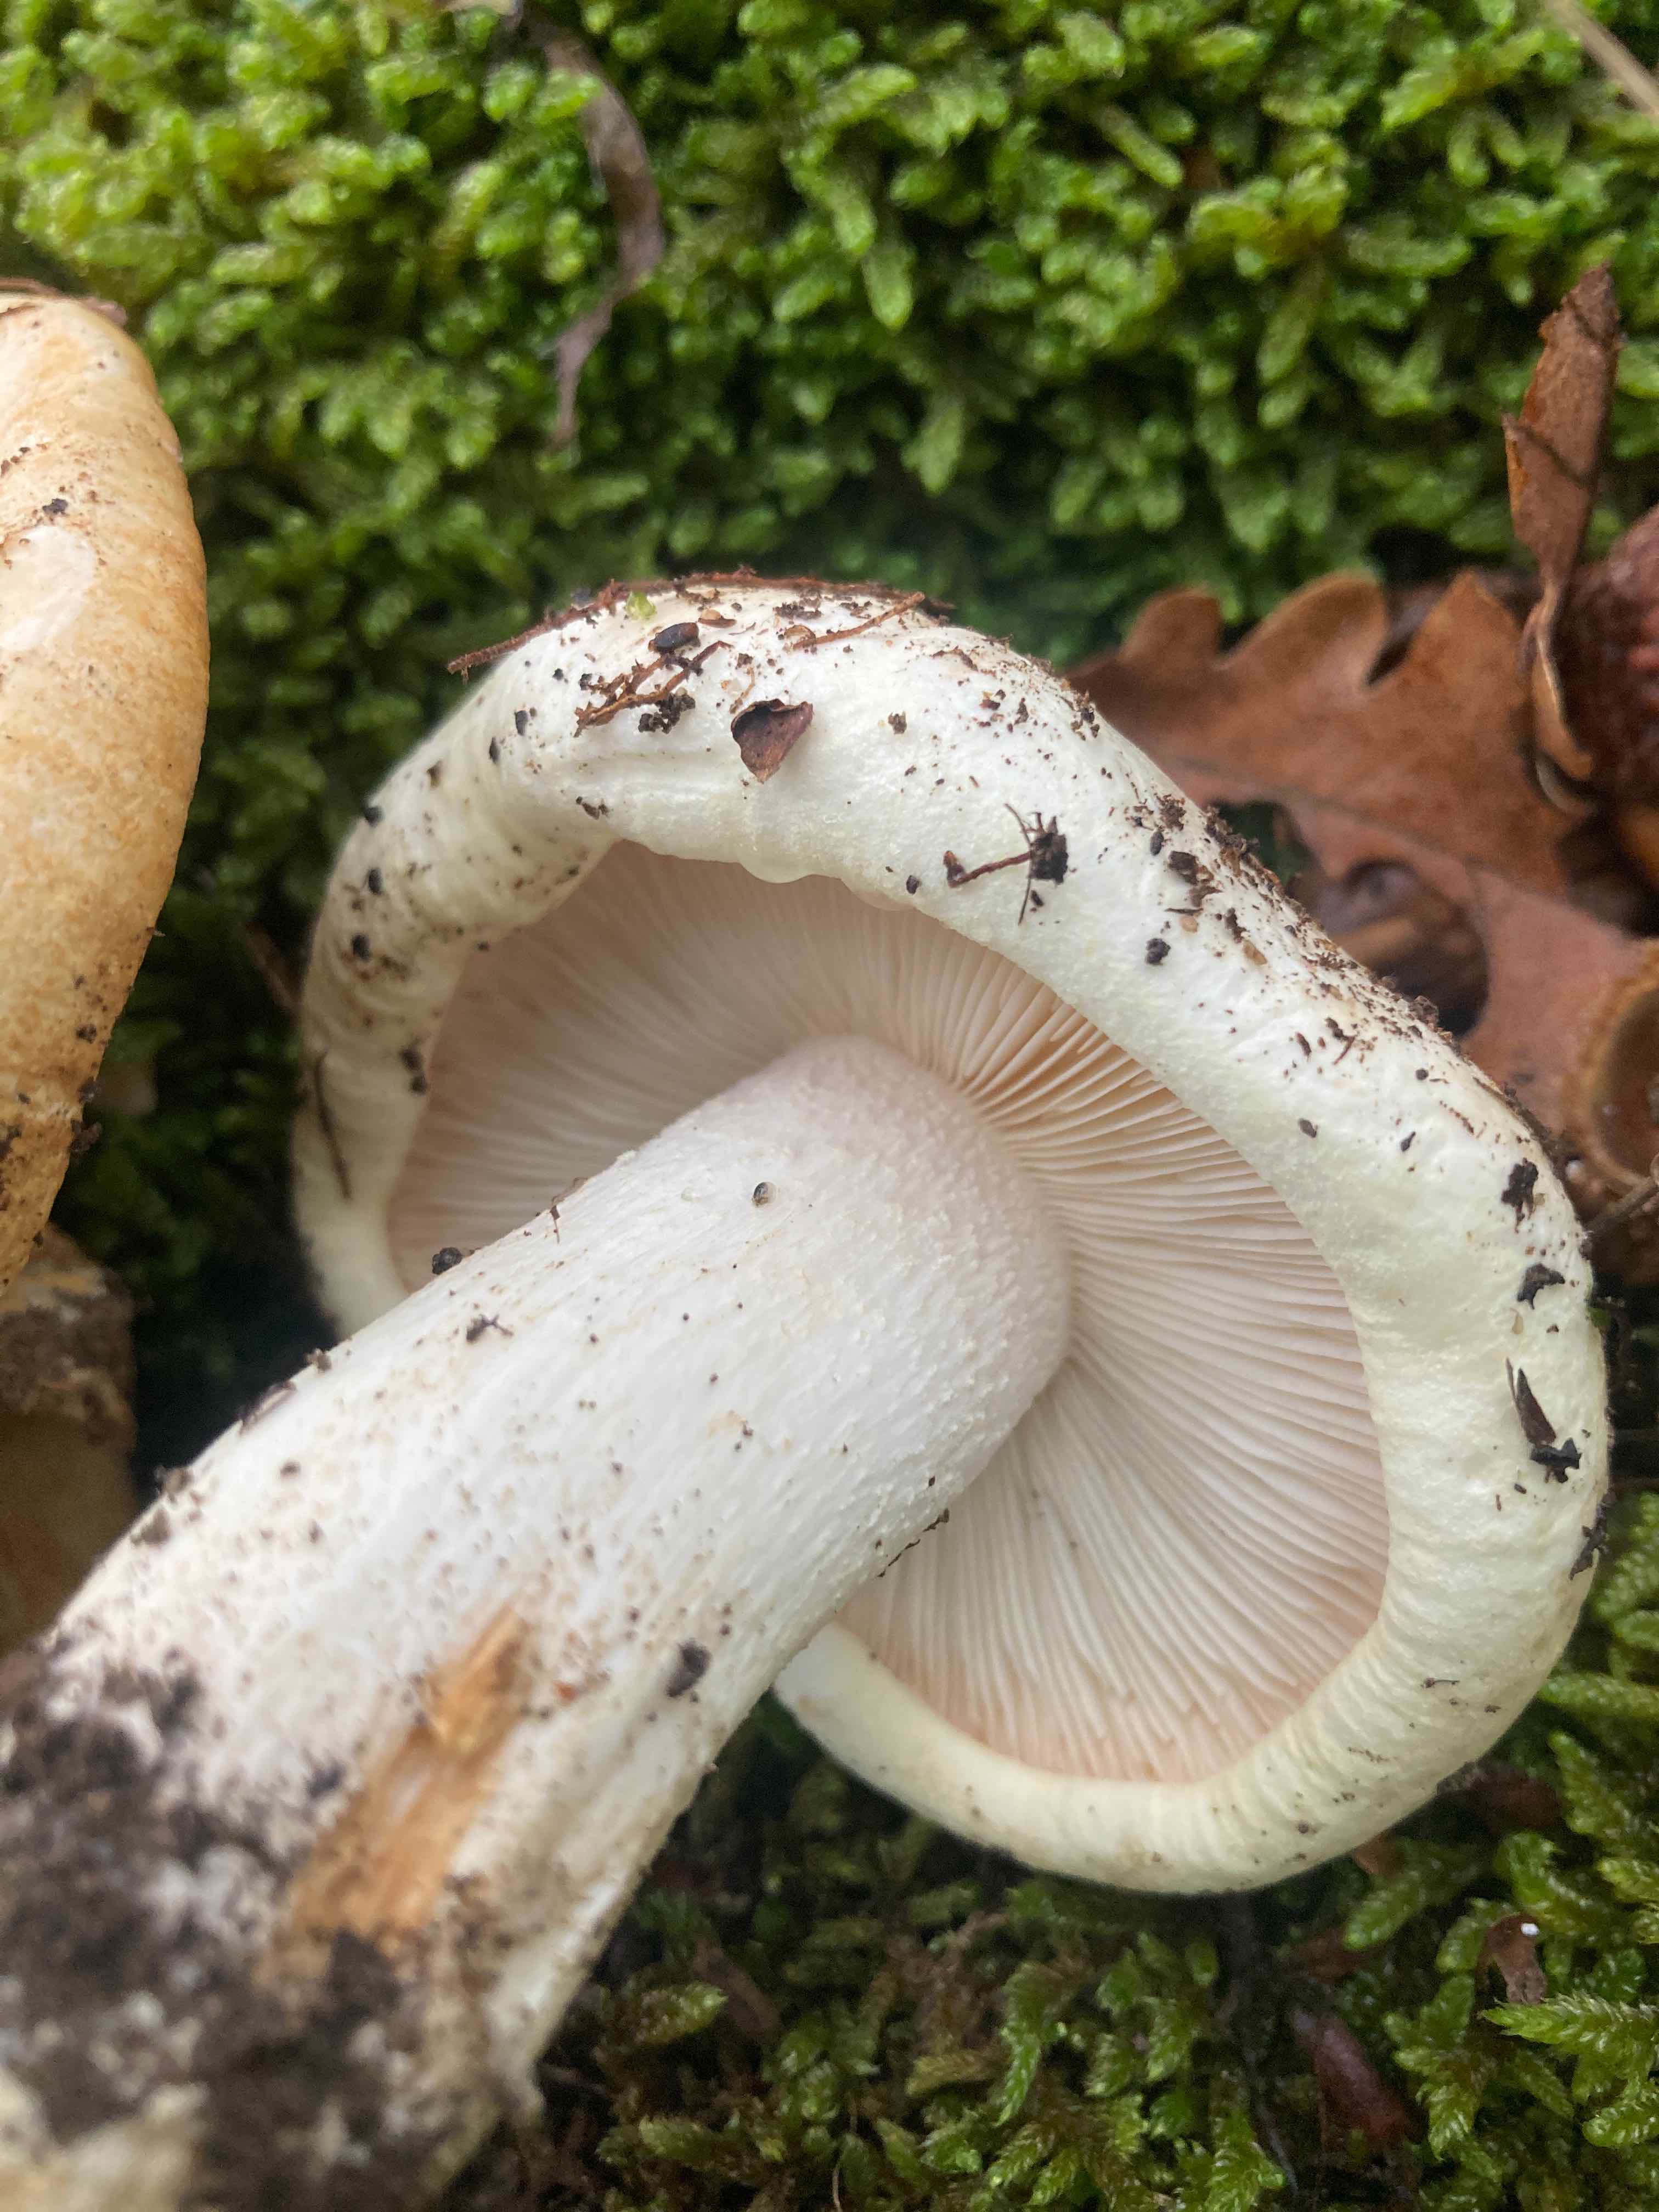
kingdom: Fungi
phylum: Basidiomycota
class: Agaricomycetes
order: Agaricales
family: Tricholomataceae
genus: Tricholoma
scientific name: Tricholoma acerbum
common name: stor ridderhat
